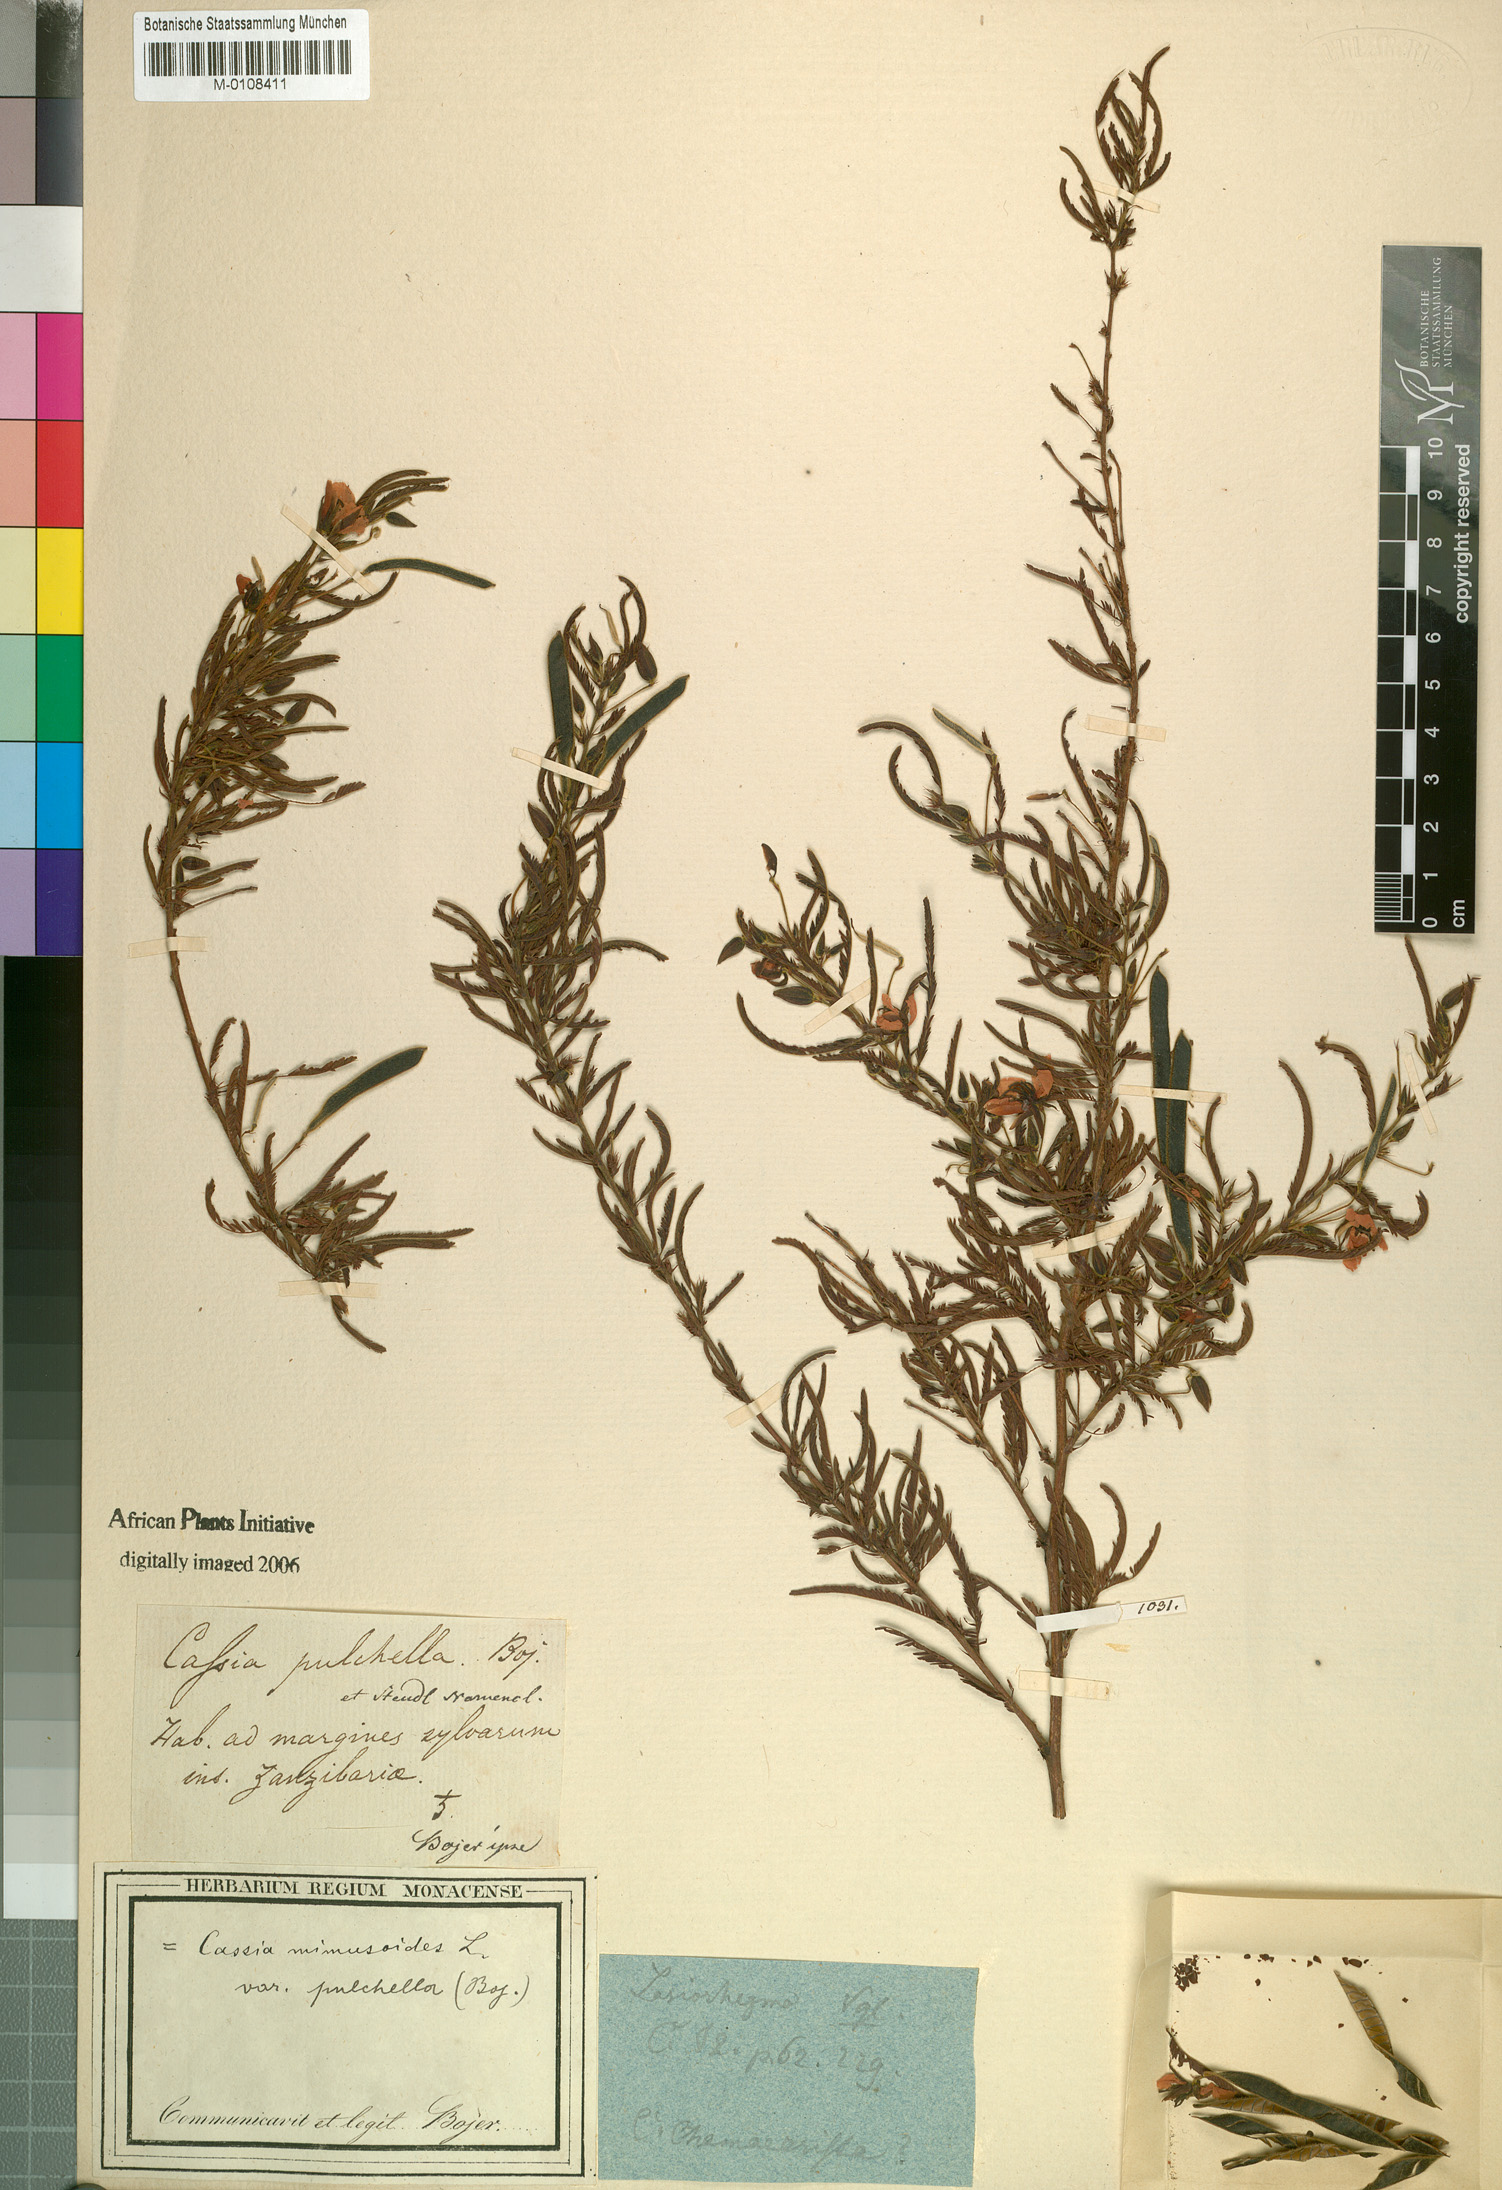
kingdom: Plantae
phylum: Tracheophyta
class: Magnoliopsida
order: Fabales
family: Fabaceae
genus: Chamaecrista
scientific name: Chamaecrista mimosoides
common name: Fish-bone cassia
